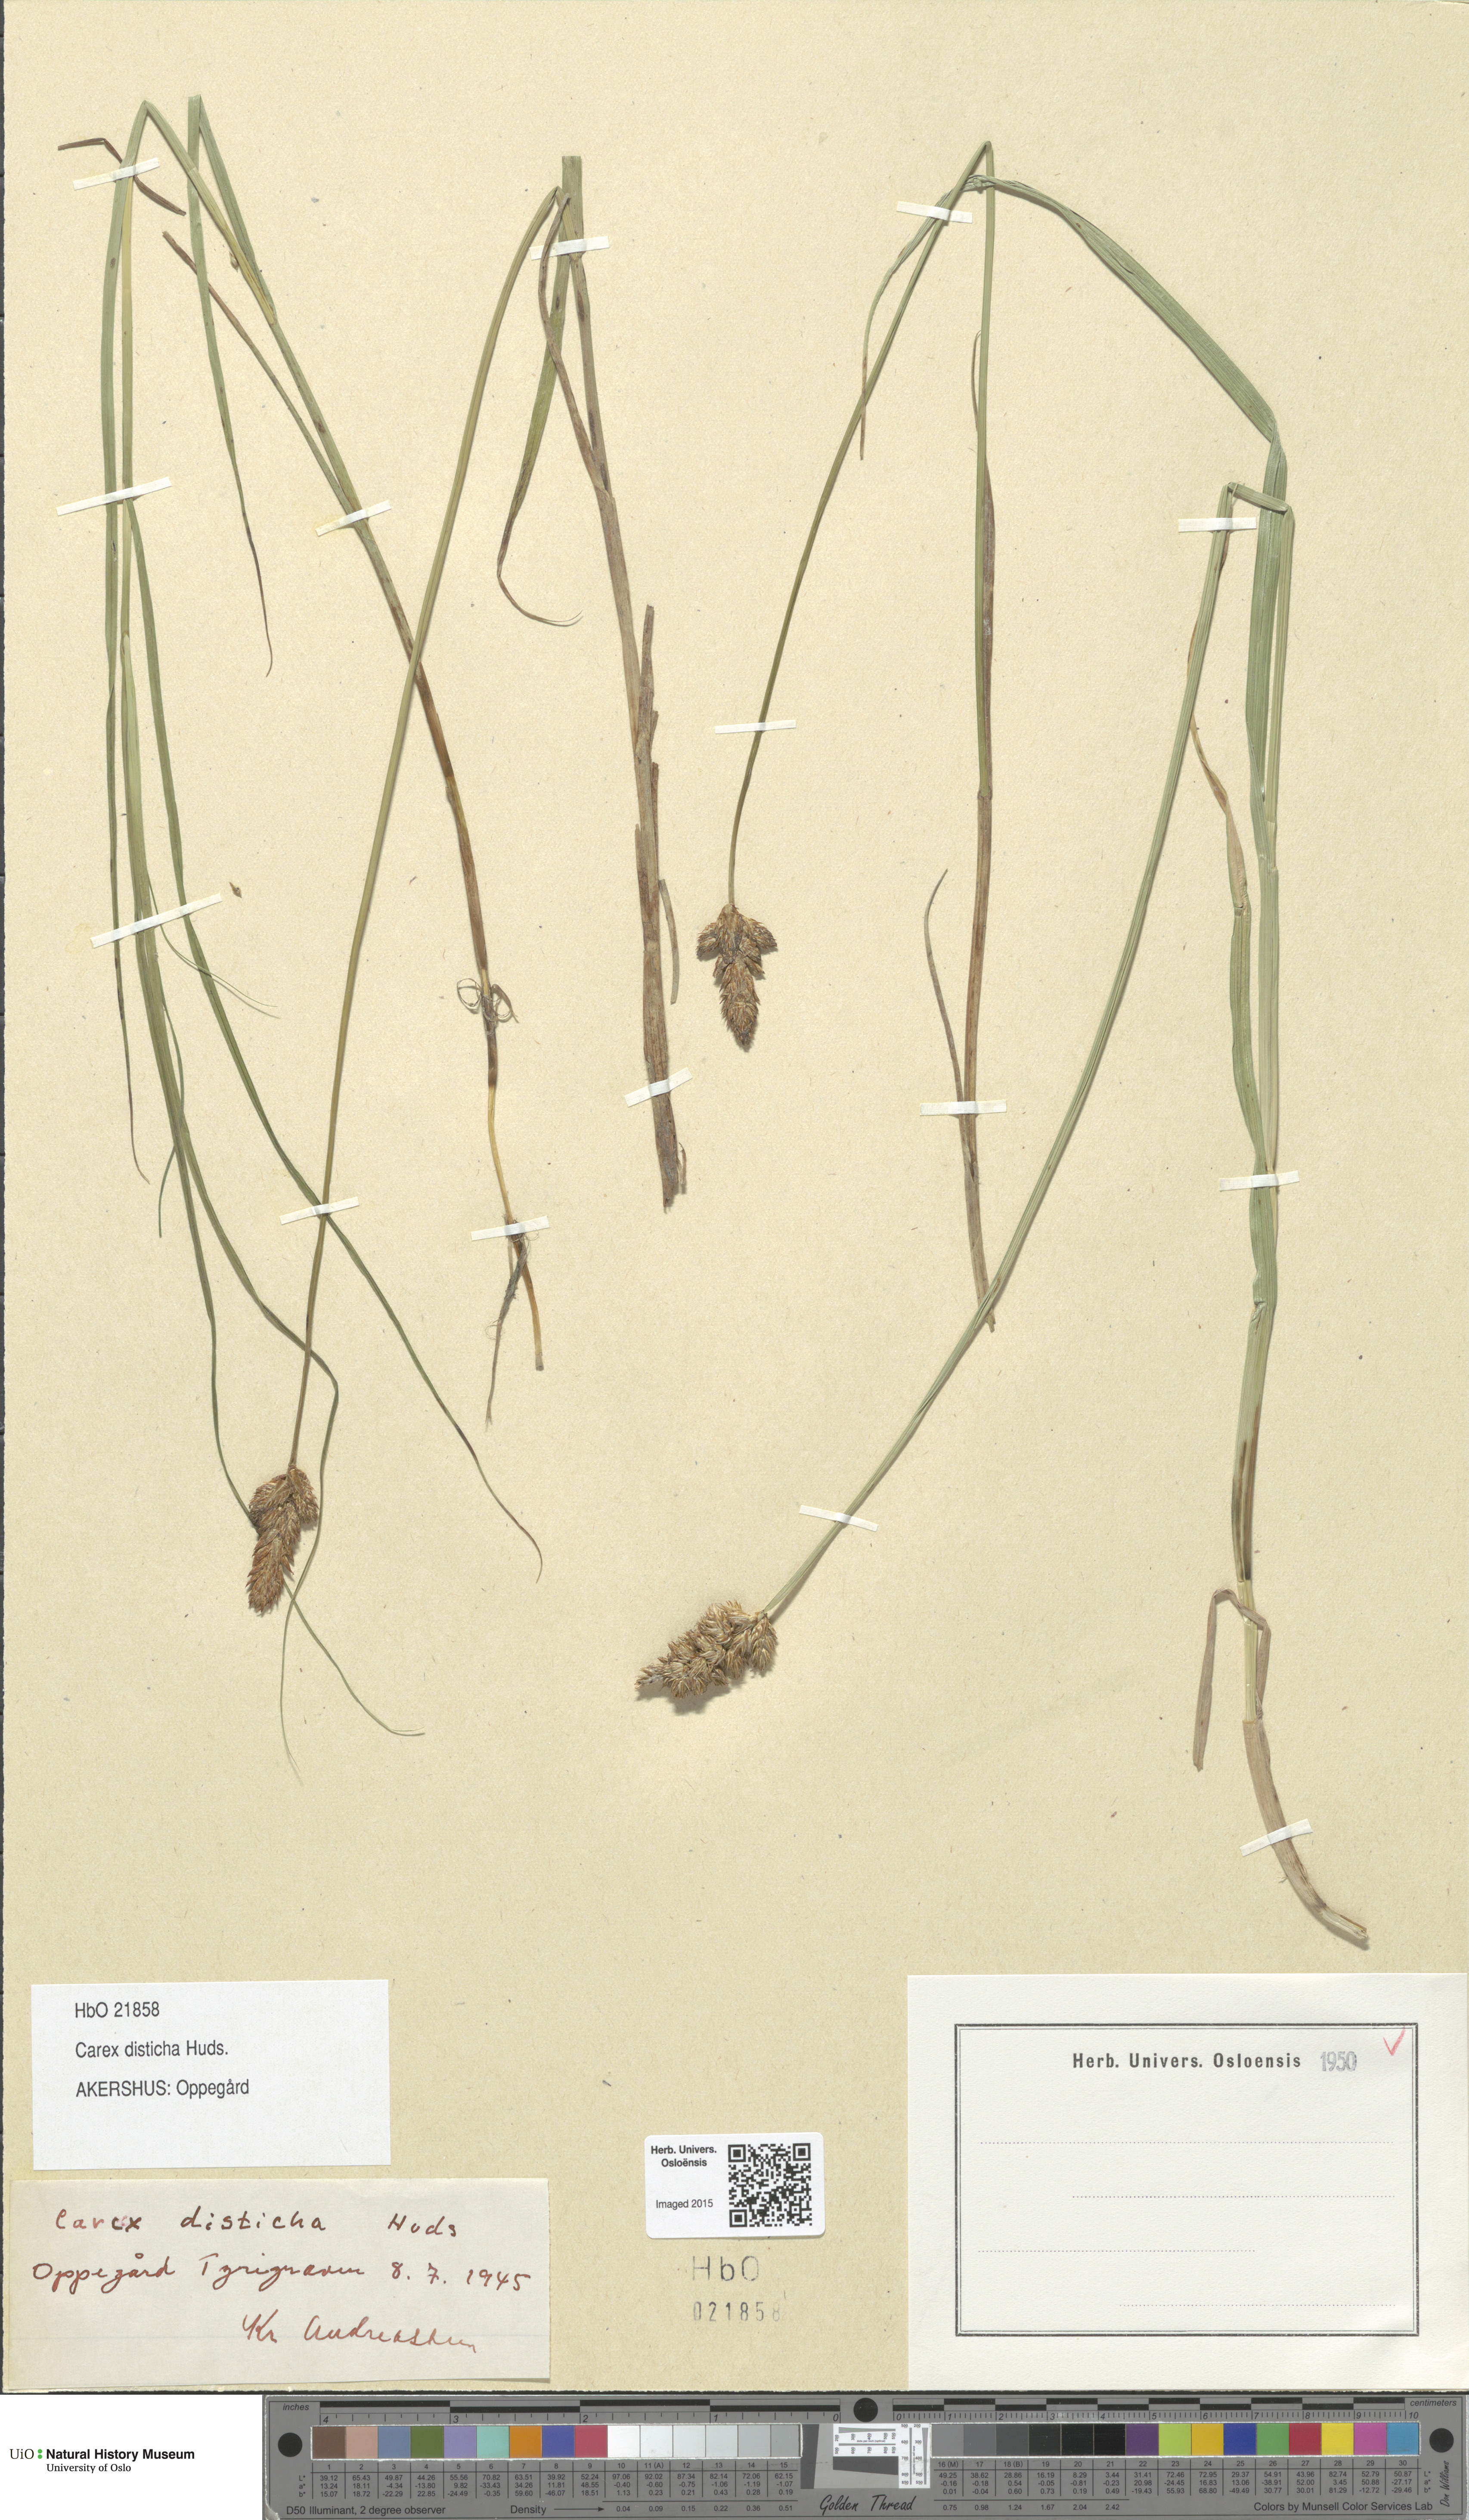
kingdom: Plantae
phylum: Tracheophyta
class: Liliopsida
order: Poales
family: Cyperaceae
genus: Carex
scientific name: Carex disticha
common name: Brown sedge
